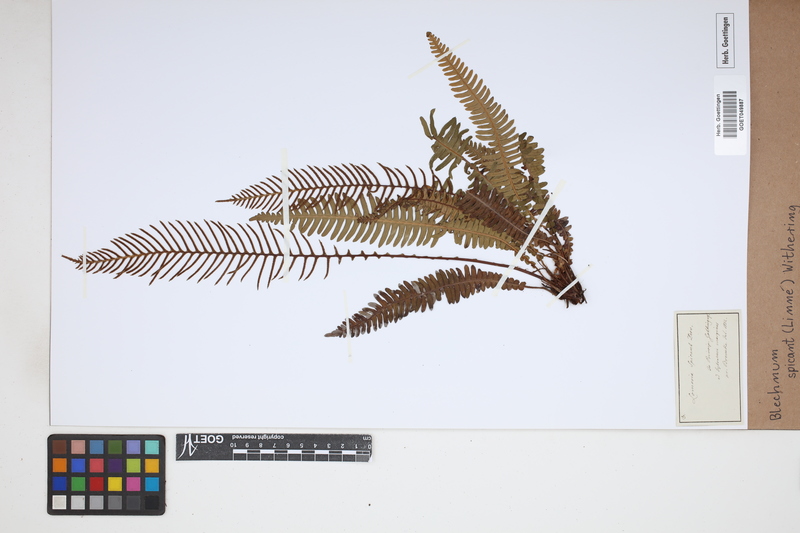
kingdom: Plantae
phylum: Tracheophyta
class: Polypodiopsida
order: Polypodiales
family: Blechnaceae
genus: Struthiopteris
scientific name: Struthiopteris spicant
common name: Deer fern
